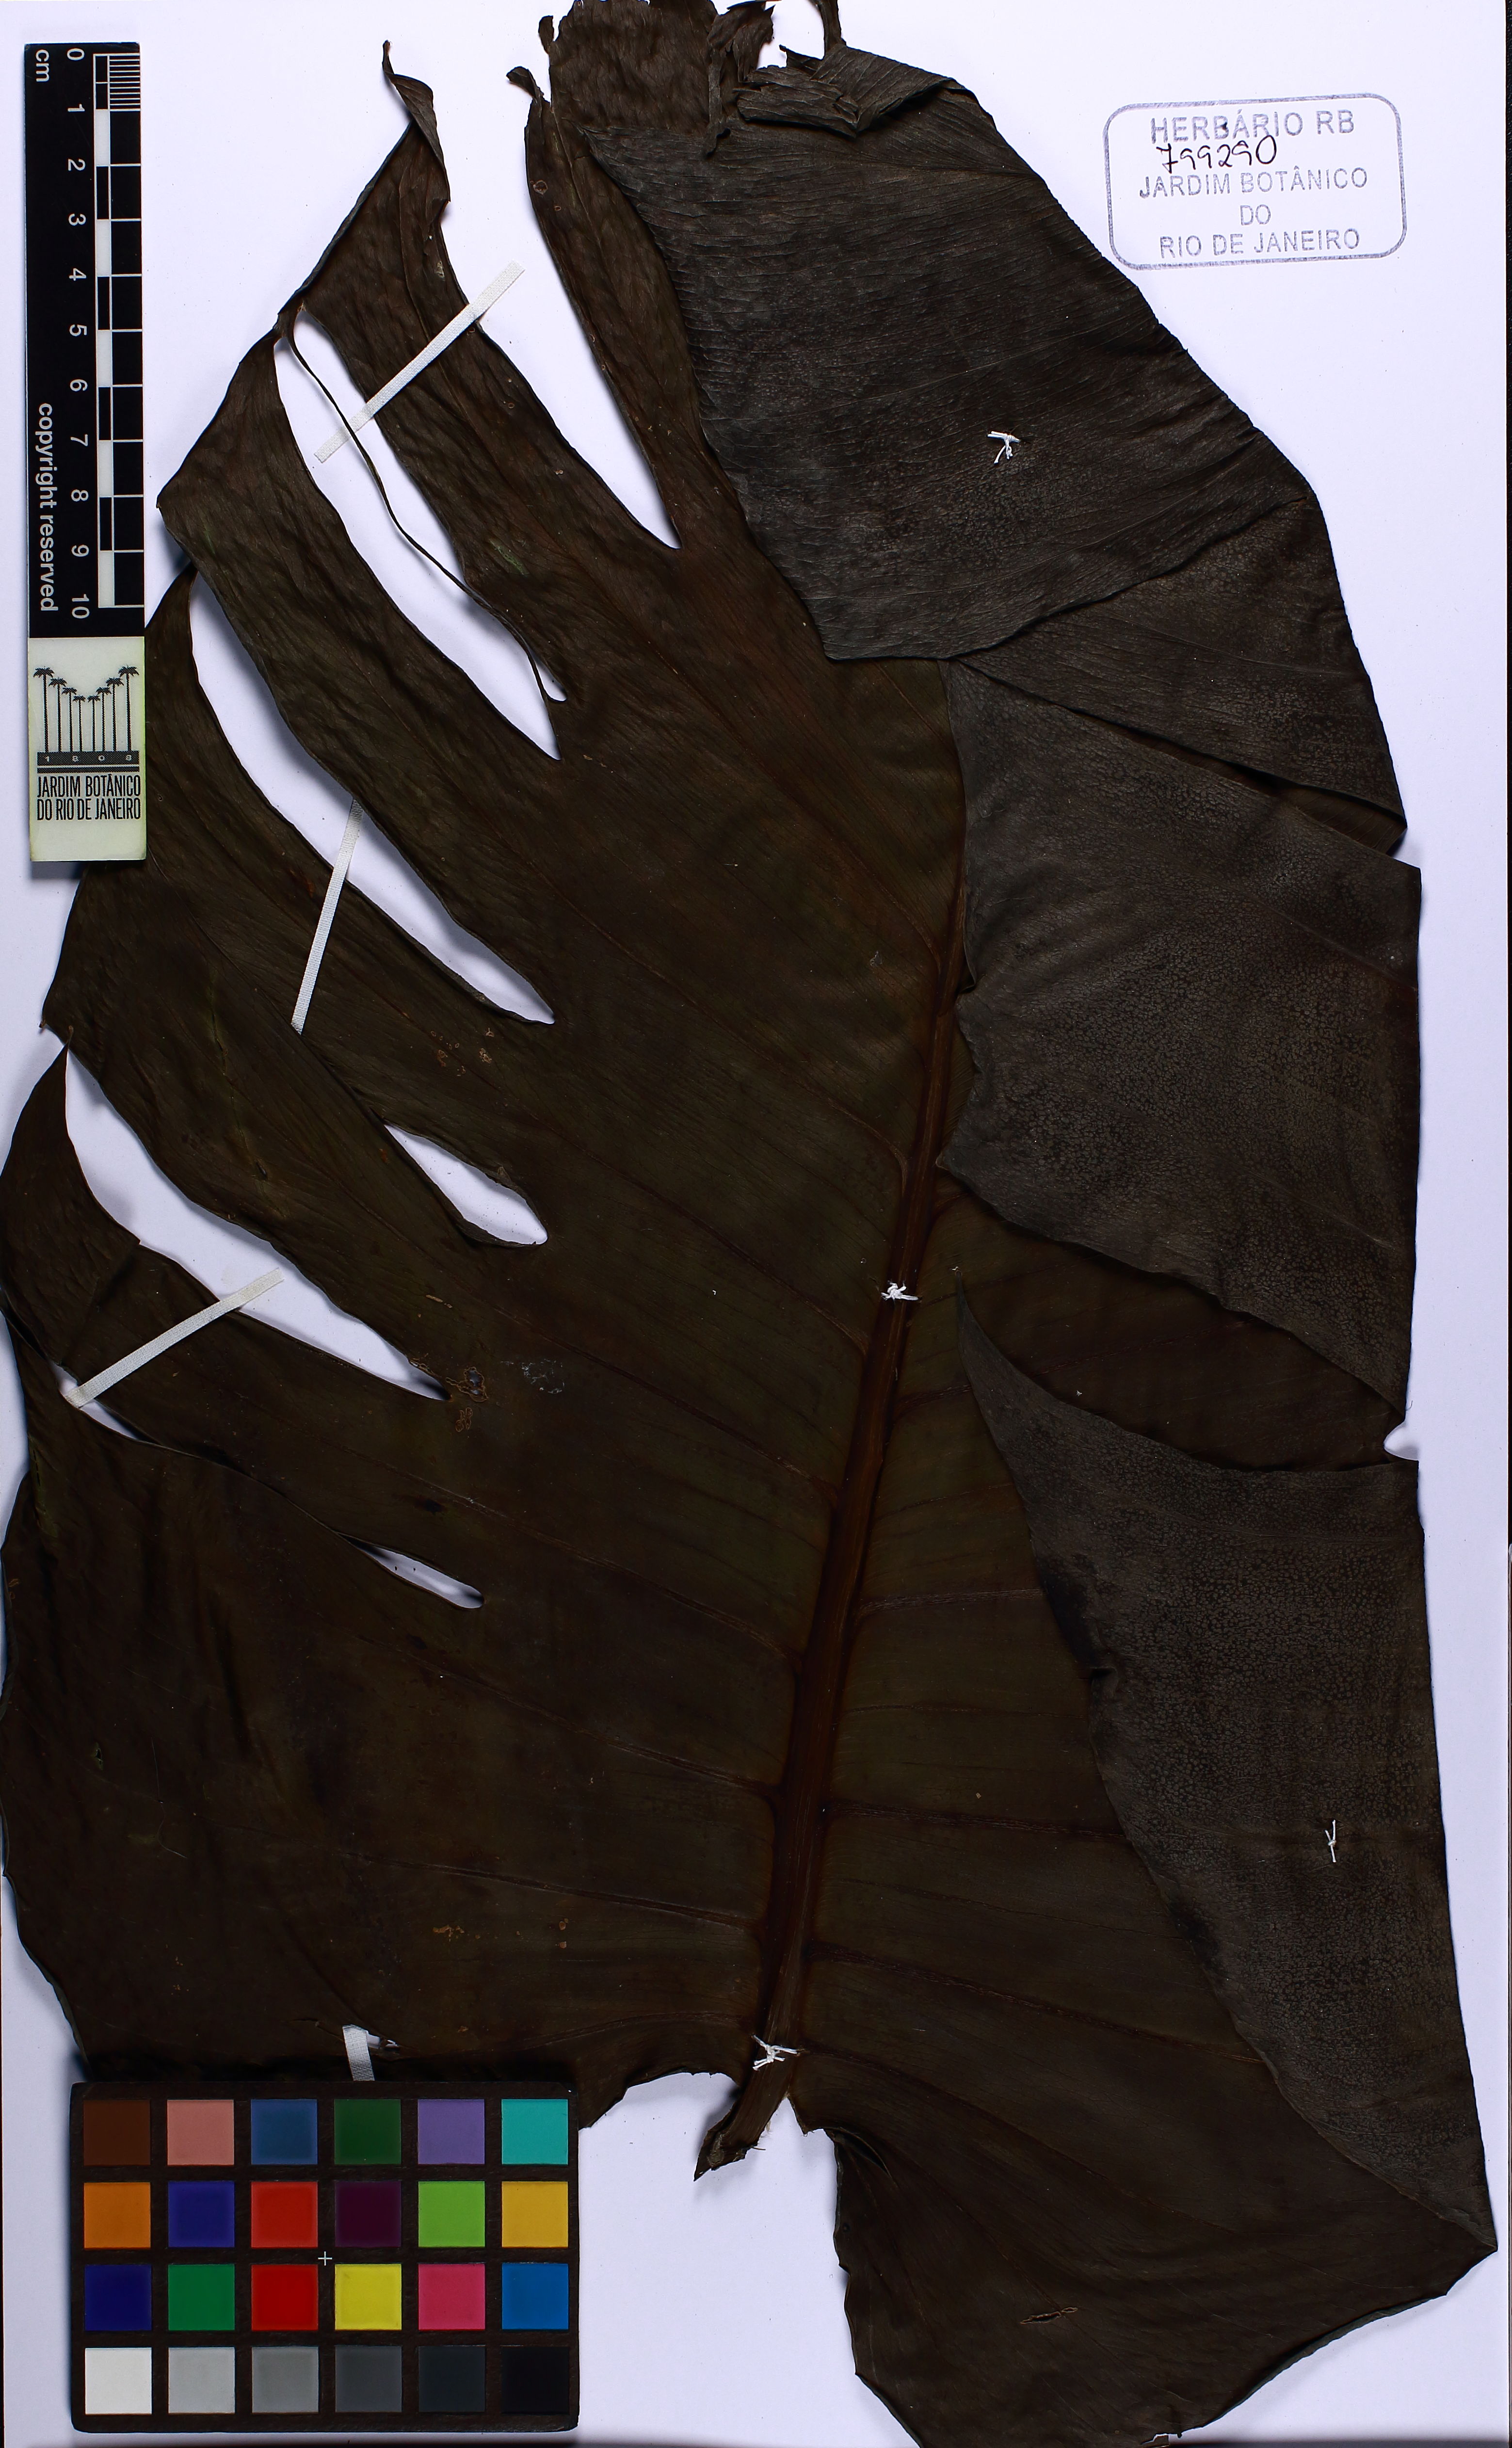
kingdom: Plantae
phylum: Tracheophyta
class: Liliopsida
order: Alismatales
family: Araceae
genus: Epipremnum
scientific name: Epipremnum pinnatum
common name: Centipede tongavine
